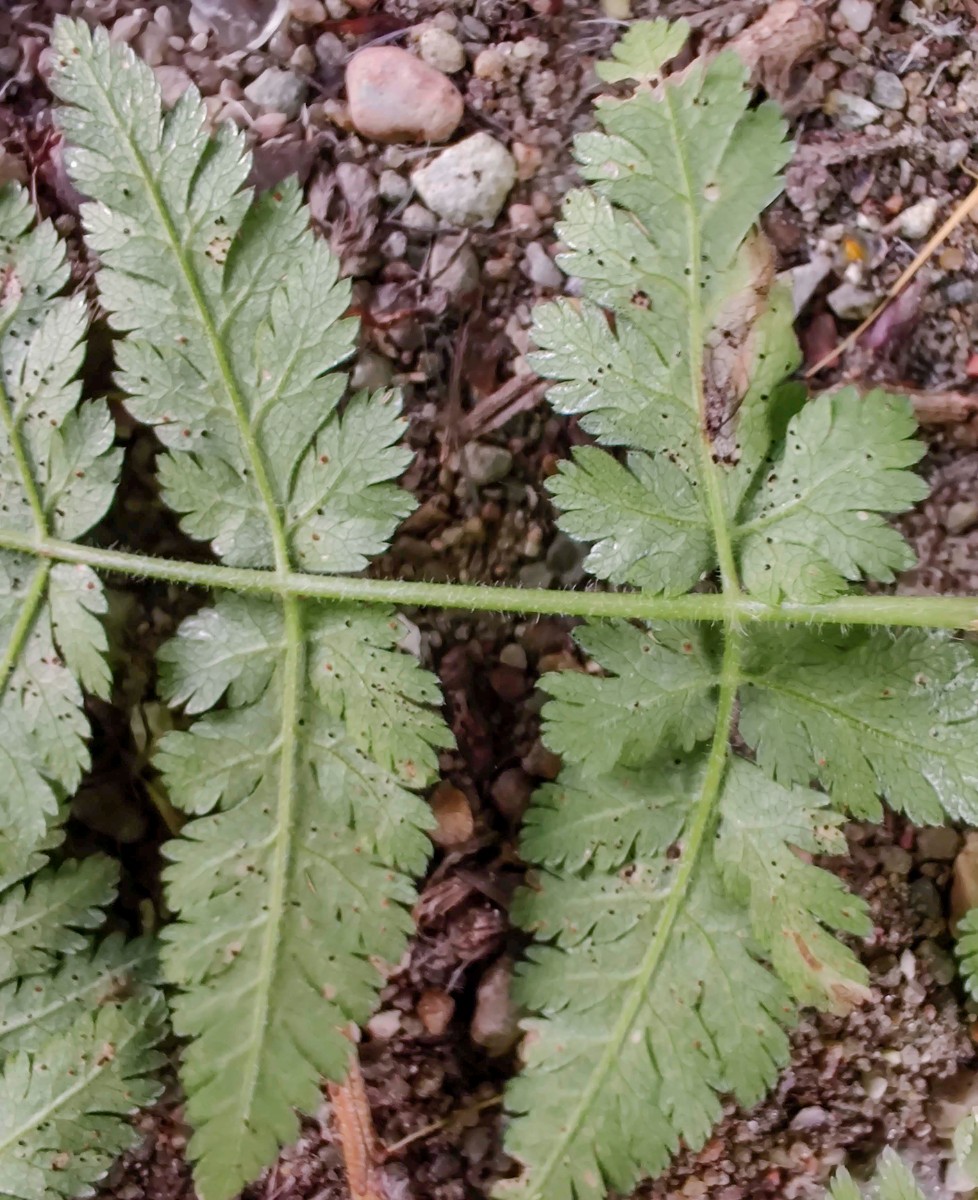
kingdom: Fungi
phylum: Basidiomycota
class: Pucciniomycetes
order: Pucciniales
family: Pucciniaceae
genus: Puccinia
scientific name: Puccinia chaerophylli
